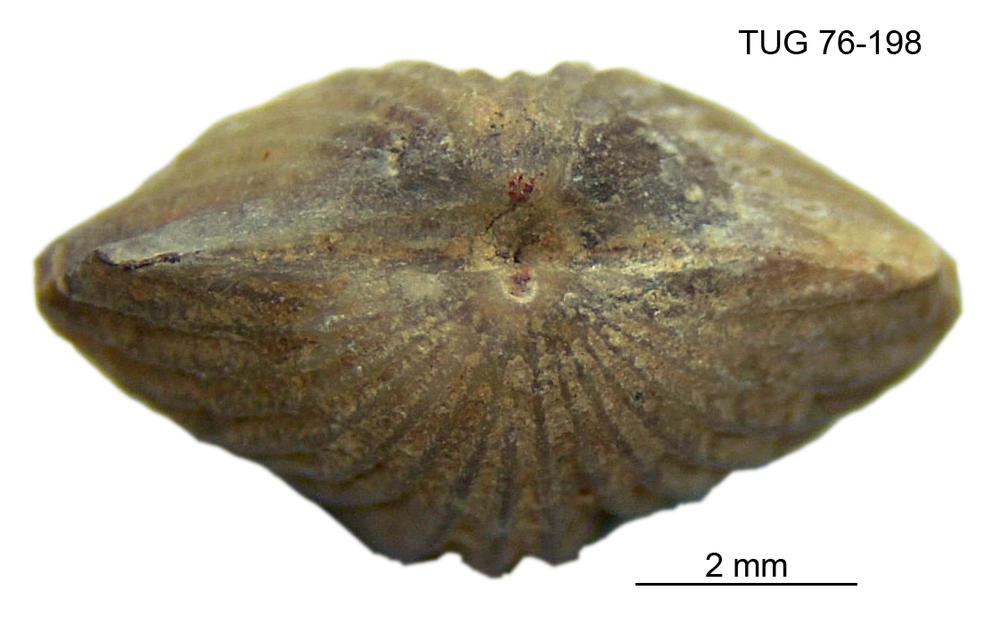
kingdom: Animalia
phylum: Brachiopoda
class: Rhynchonellata
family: Plectorthidae
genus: Platystrophia
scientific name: Platystrophia dentata
